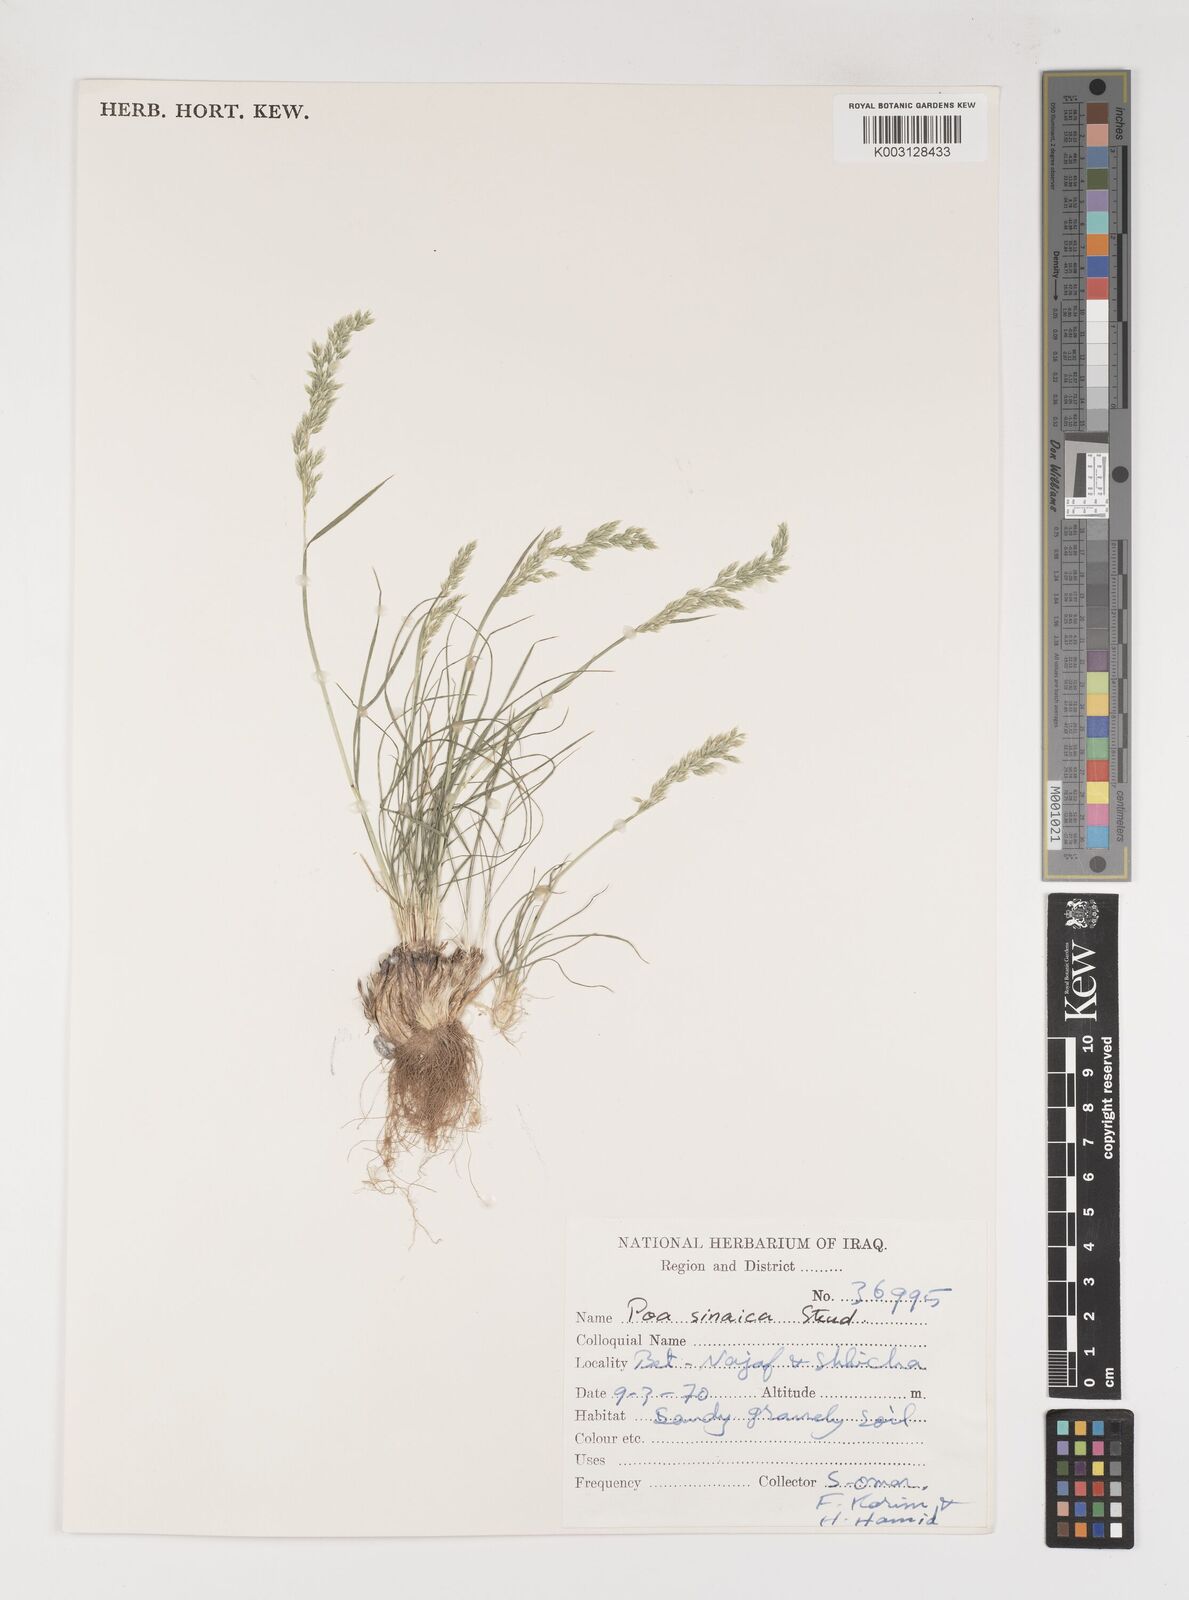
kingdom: Plantae
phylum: Tracheophyta
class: Liliopsida
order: Poales
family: Poaceae
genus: Poa
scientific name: Poa sinaica
